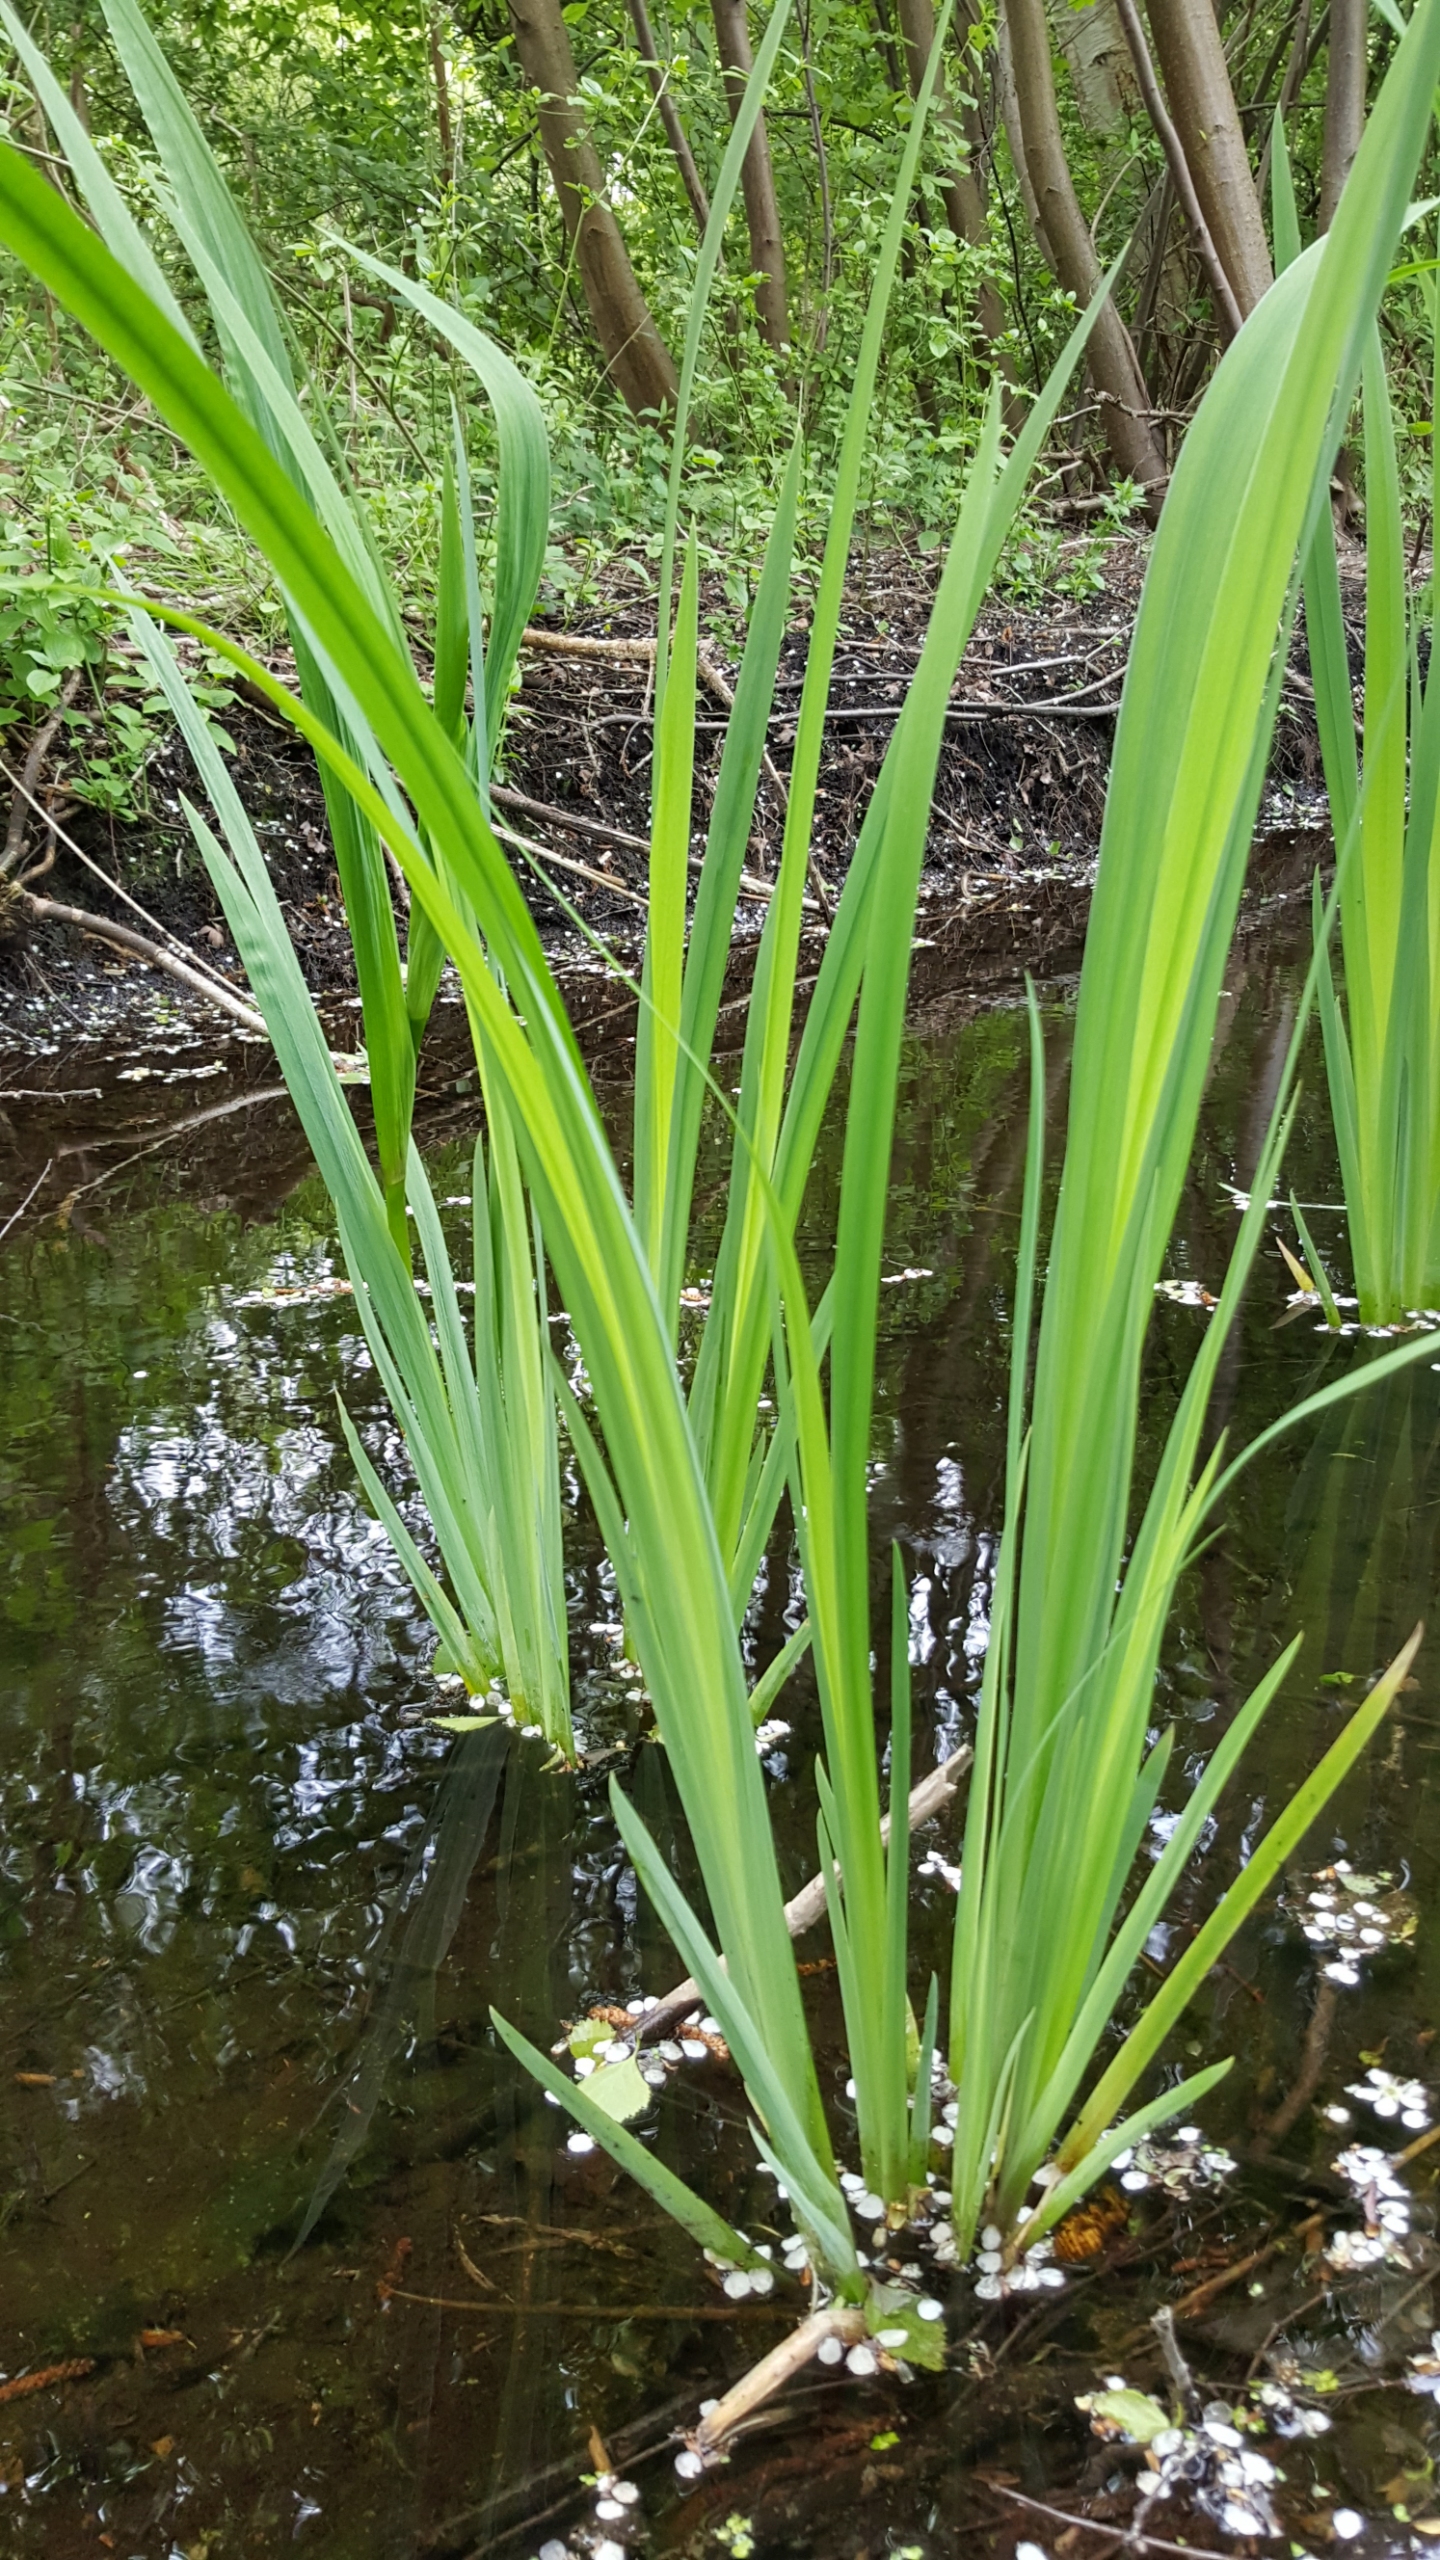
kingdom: Plantae
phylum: Tracheophyta
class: Liliopsida
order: Asparagales
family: Iridaceae
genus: Iris
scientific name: Iris pseudacorus
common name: Gul iris
